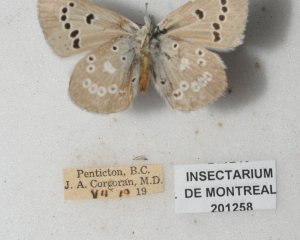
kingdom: Animalia
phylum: Arthropoda
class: Insecta
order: Lepidoptera
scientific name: Lepidoptera
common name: Butterflies
